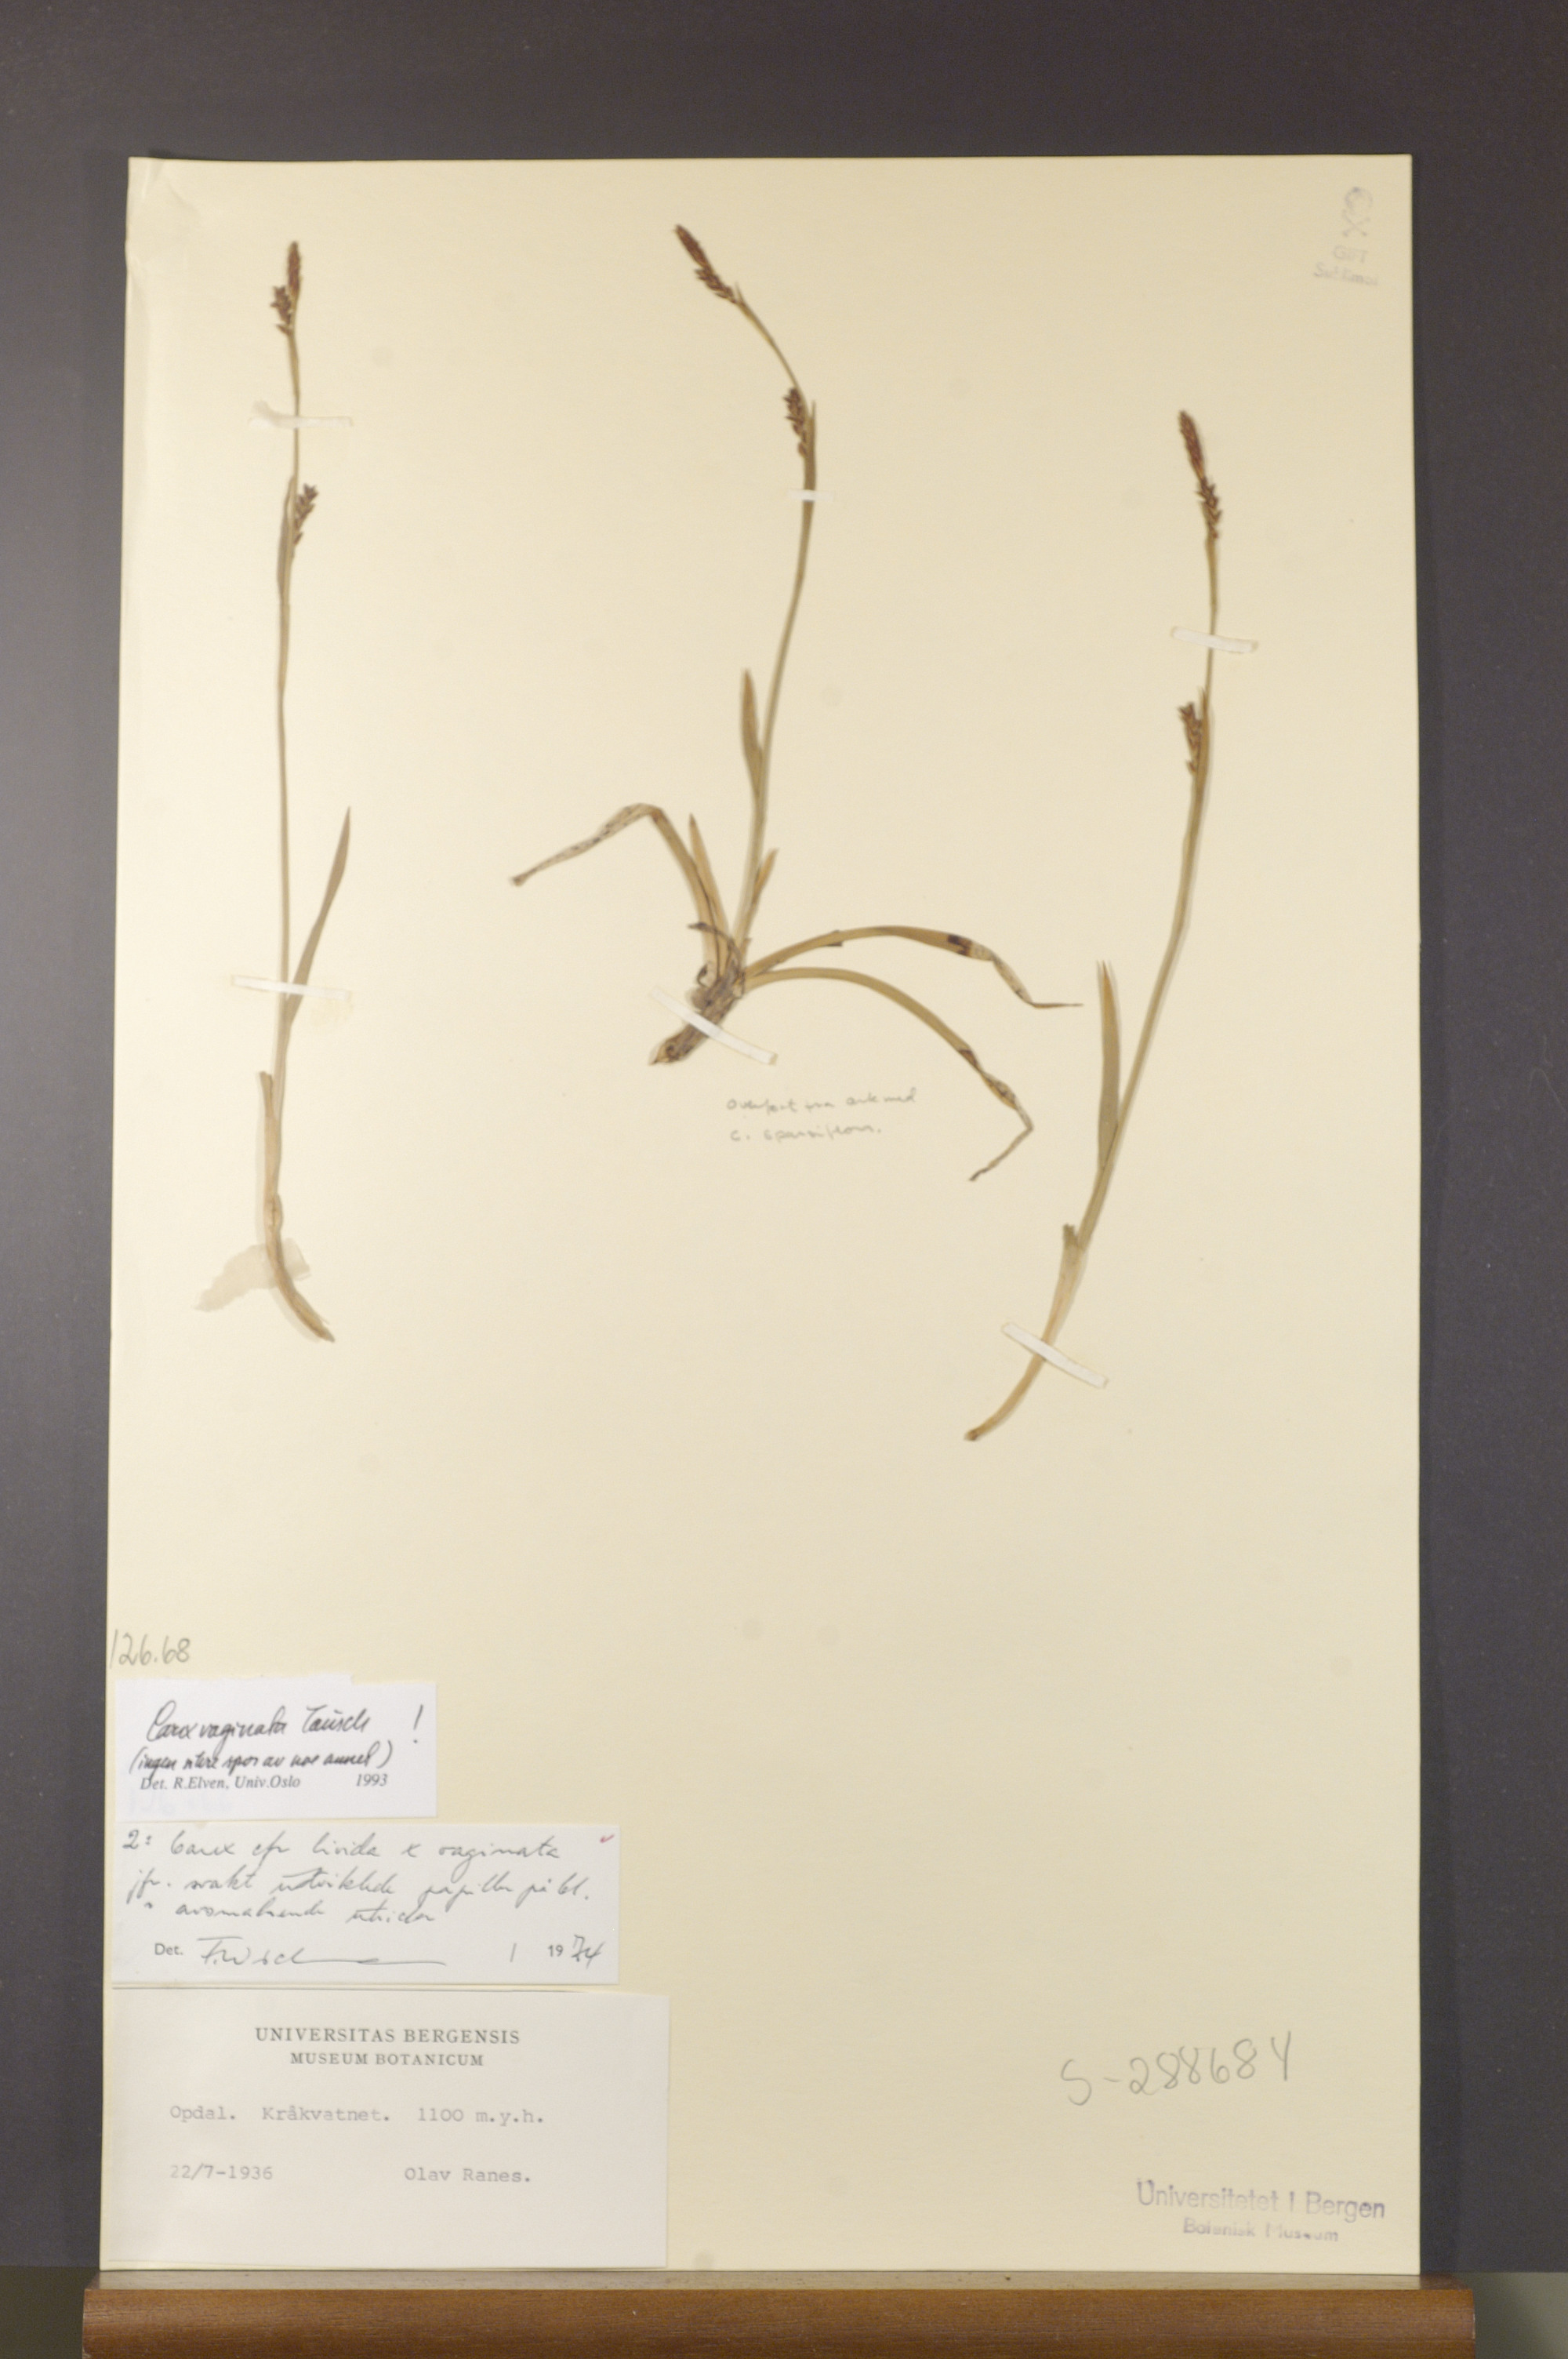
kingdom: Plantae
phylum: Tracheophyta
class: Liliopsida
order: Poales
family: Cyperaceae
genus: Carex
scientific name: Carex vaginata
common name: Sheathed sedge
